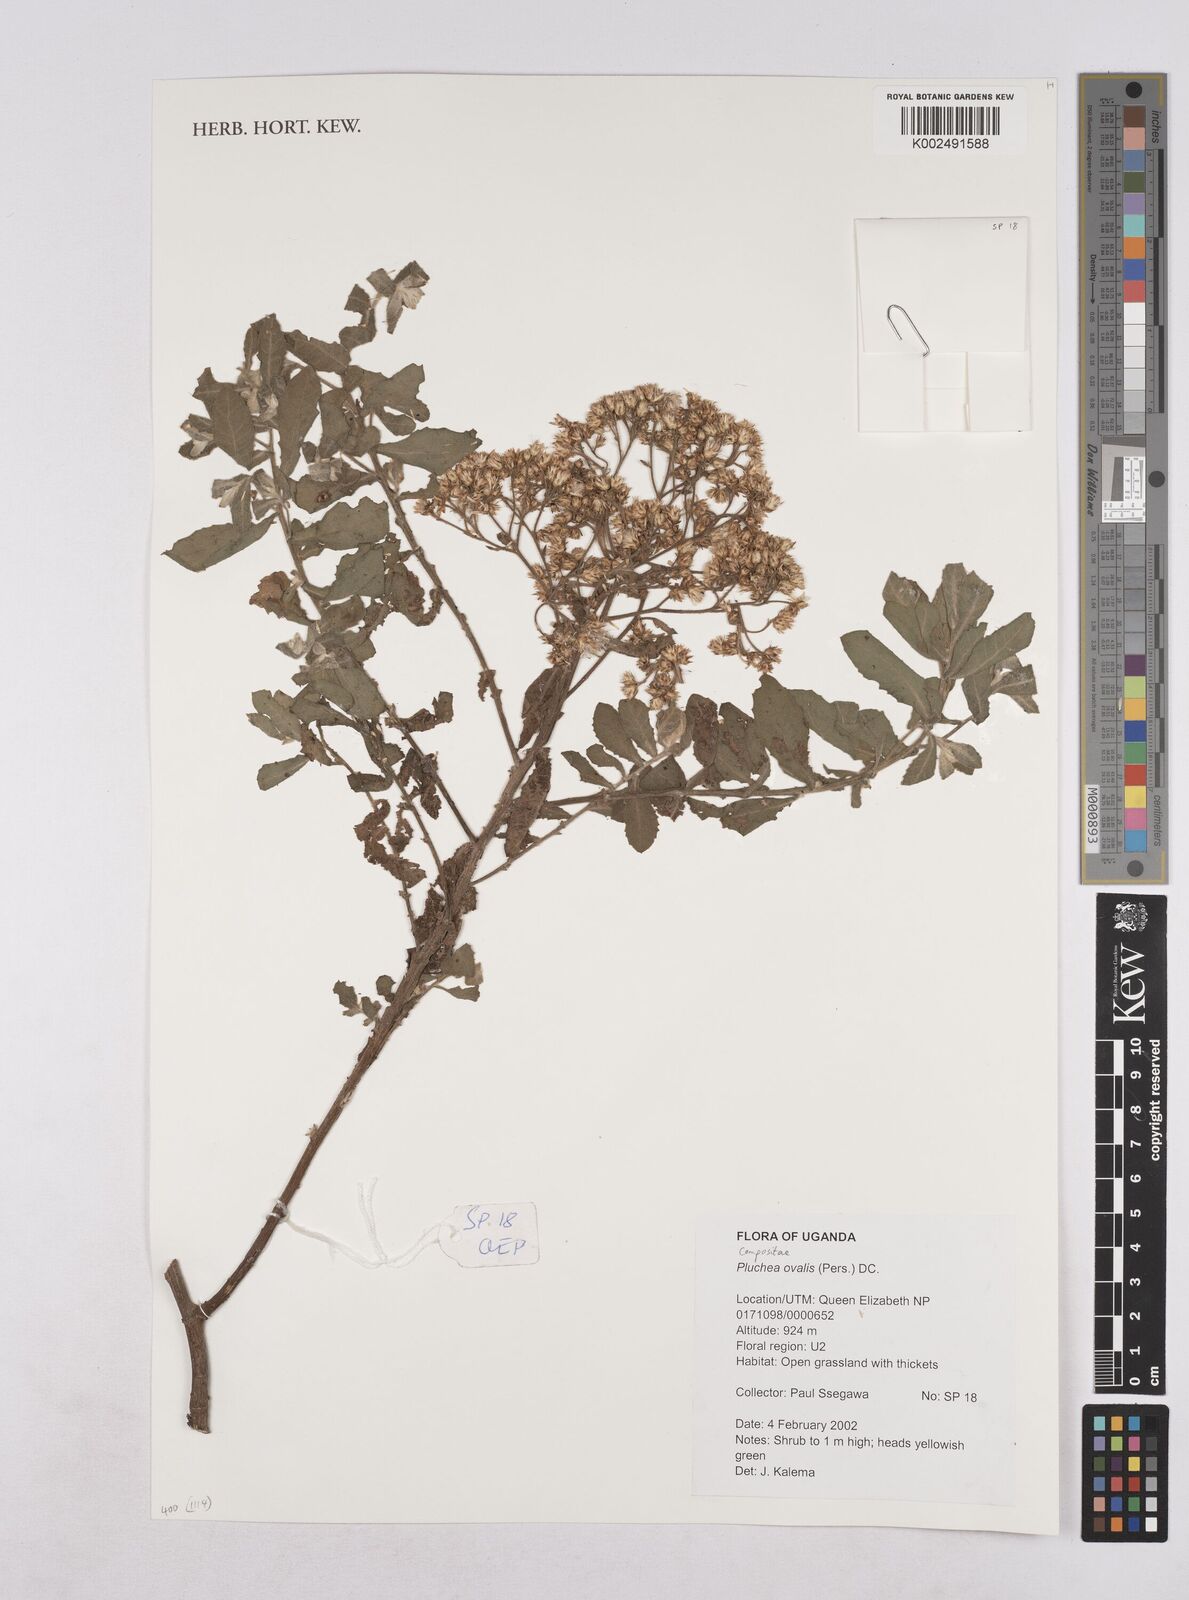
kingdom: Plantae
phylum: Tracheophyta
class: Magnoliopsida
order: Asterales
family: Asteraceae
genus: Pluchea
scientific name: Pluchea ovalis
